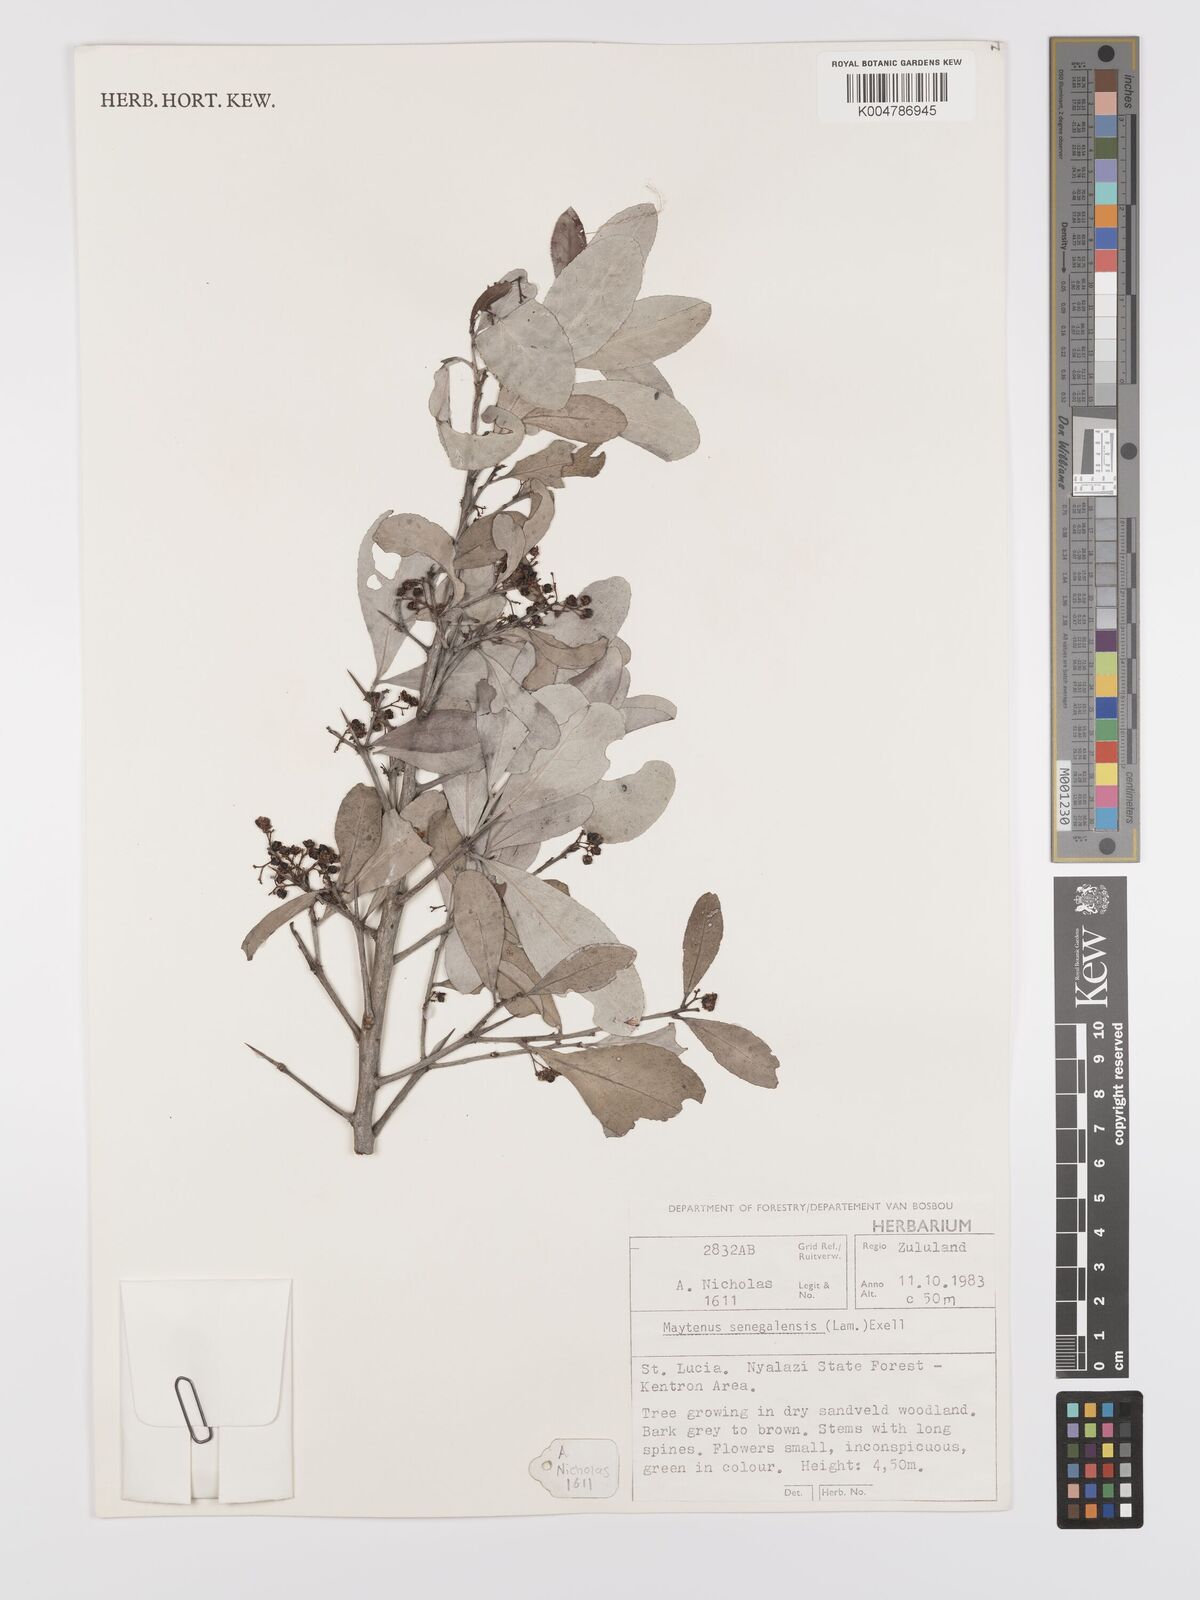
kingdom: Plantae
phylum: Tracheophyta
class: Magnoliopsida
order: Celastrales
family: Celastraceae
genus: Gymnosporia
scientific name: Gymnosporia senegalensis
